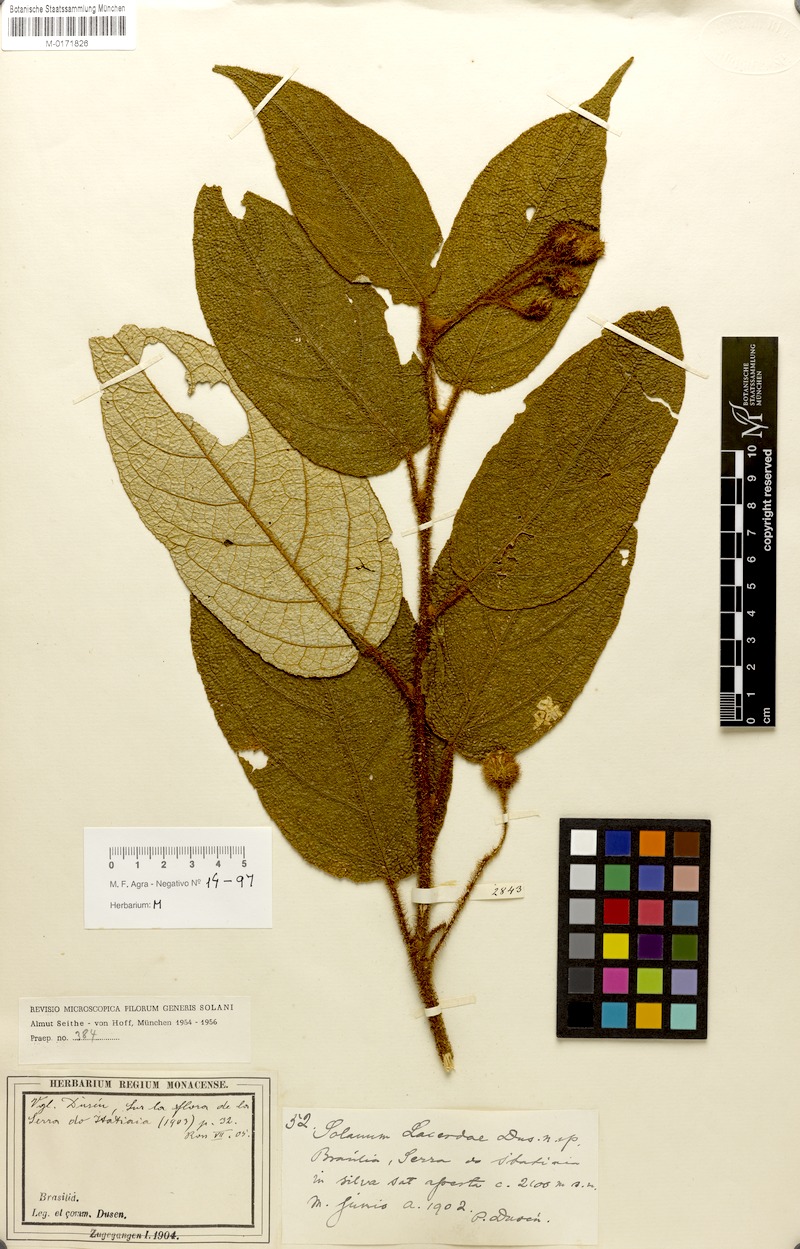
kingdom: Plantae
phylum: Tracheophyta
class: Magnoliopsida
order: Solanales
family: Solanaceae
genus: Solanum
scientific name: Solanum lacerdae
